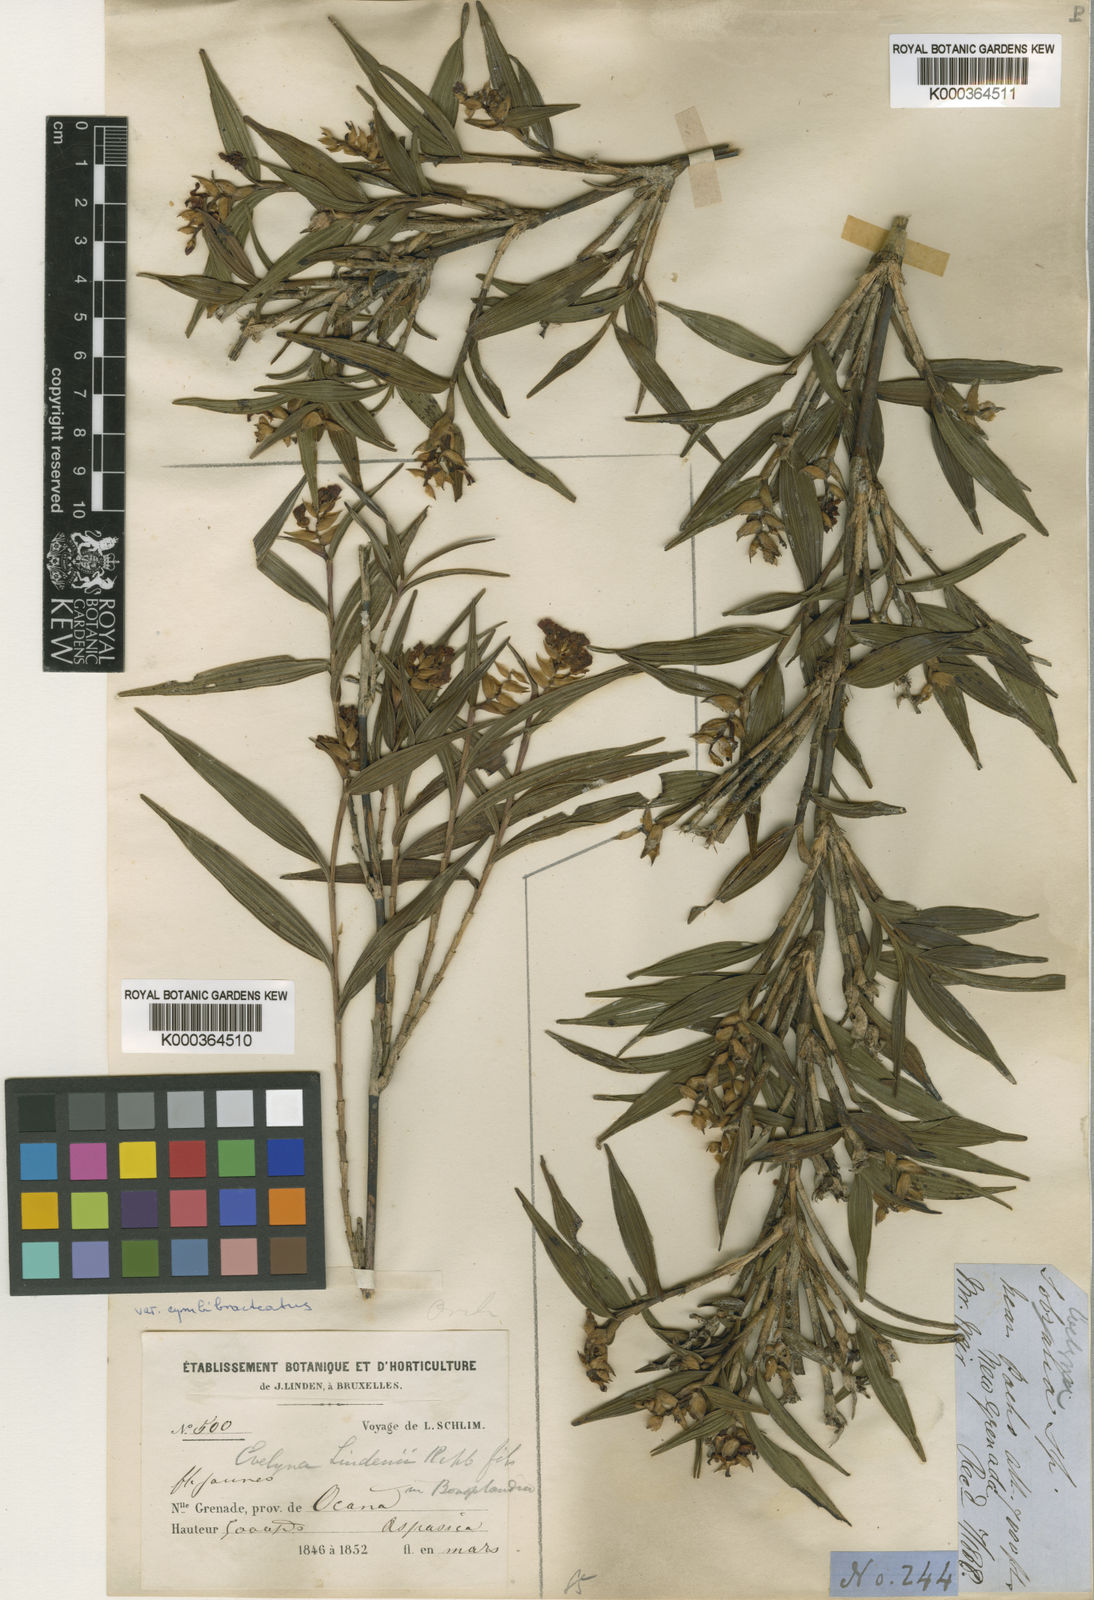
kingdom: Plantae
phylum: Tracheophyta
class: Liliopsida
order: Asparagales
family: Orchidaceae
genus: Elleanthus
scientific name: Elleanthus aurantiacus
